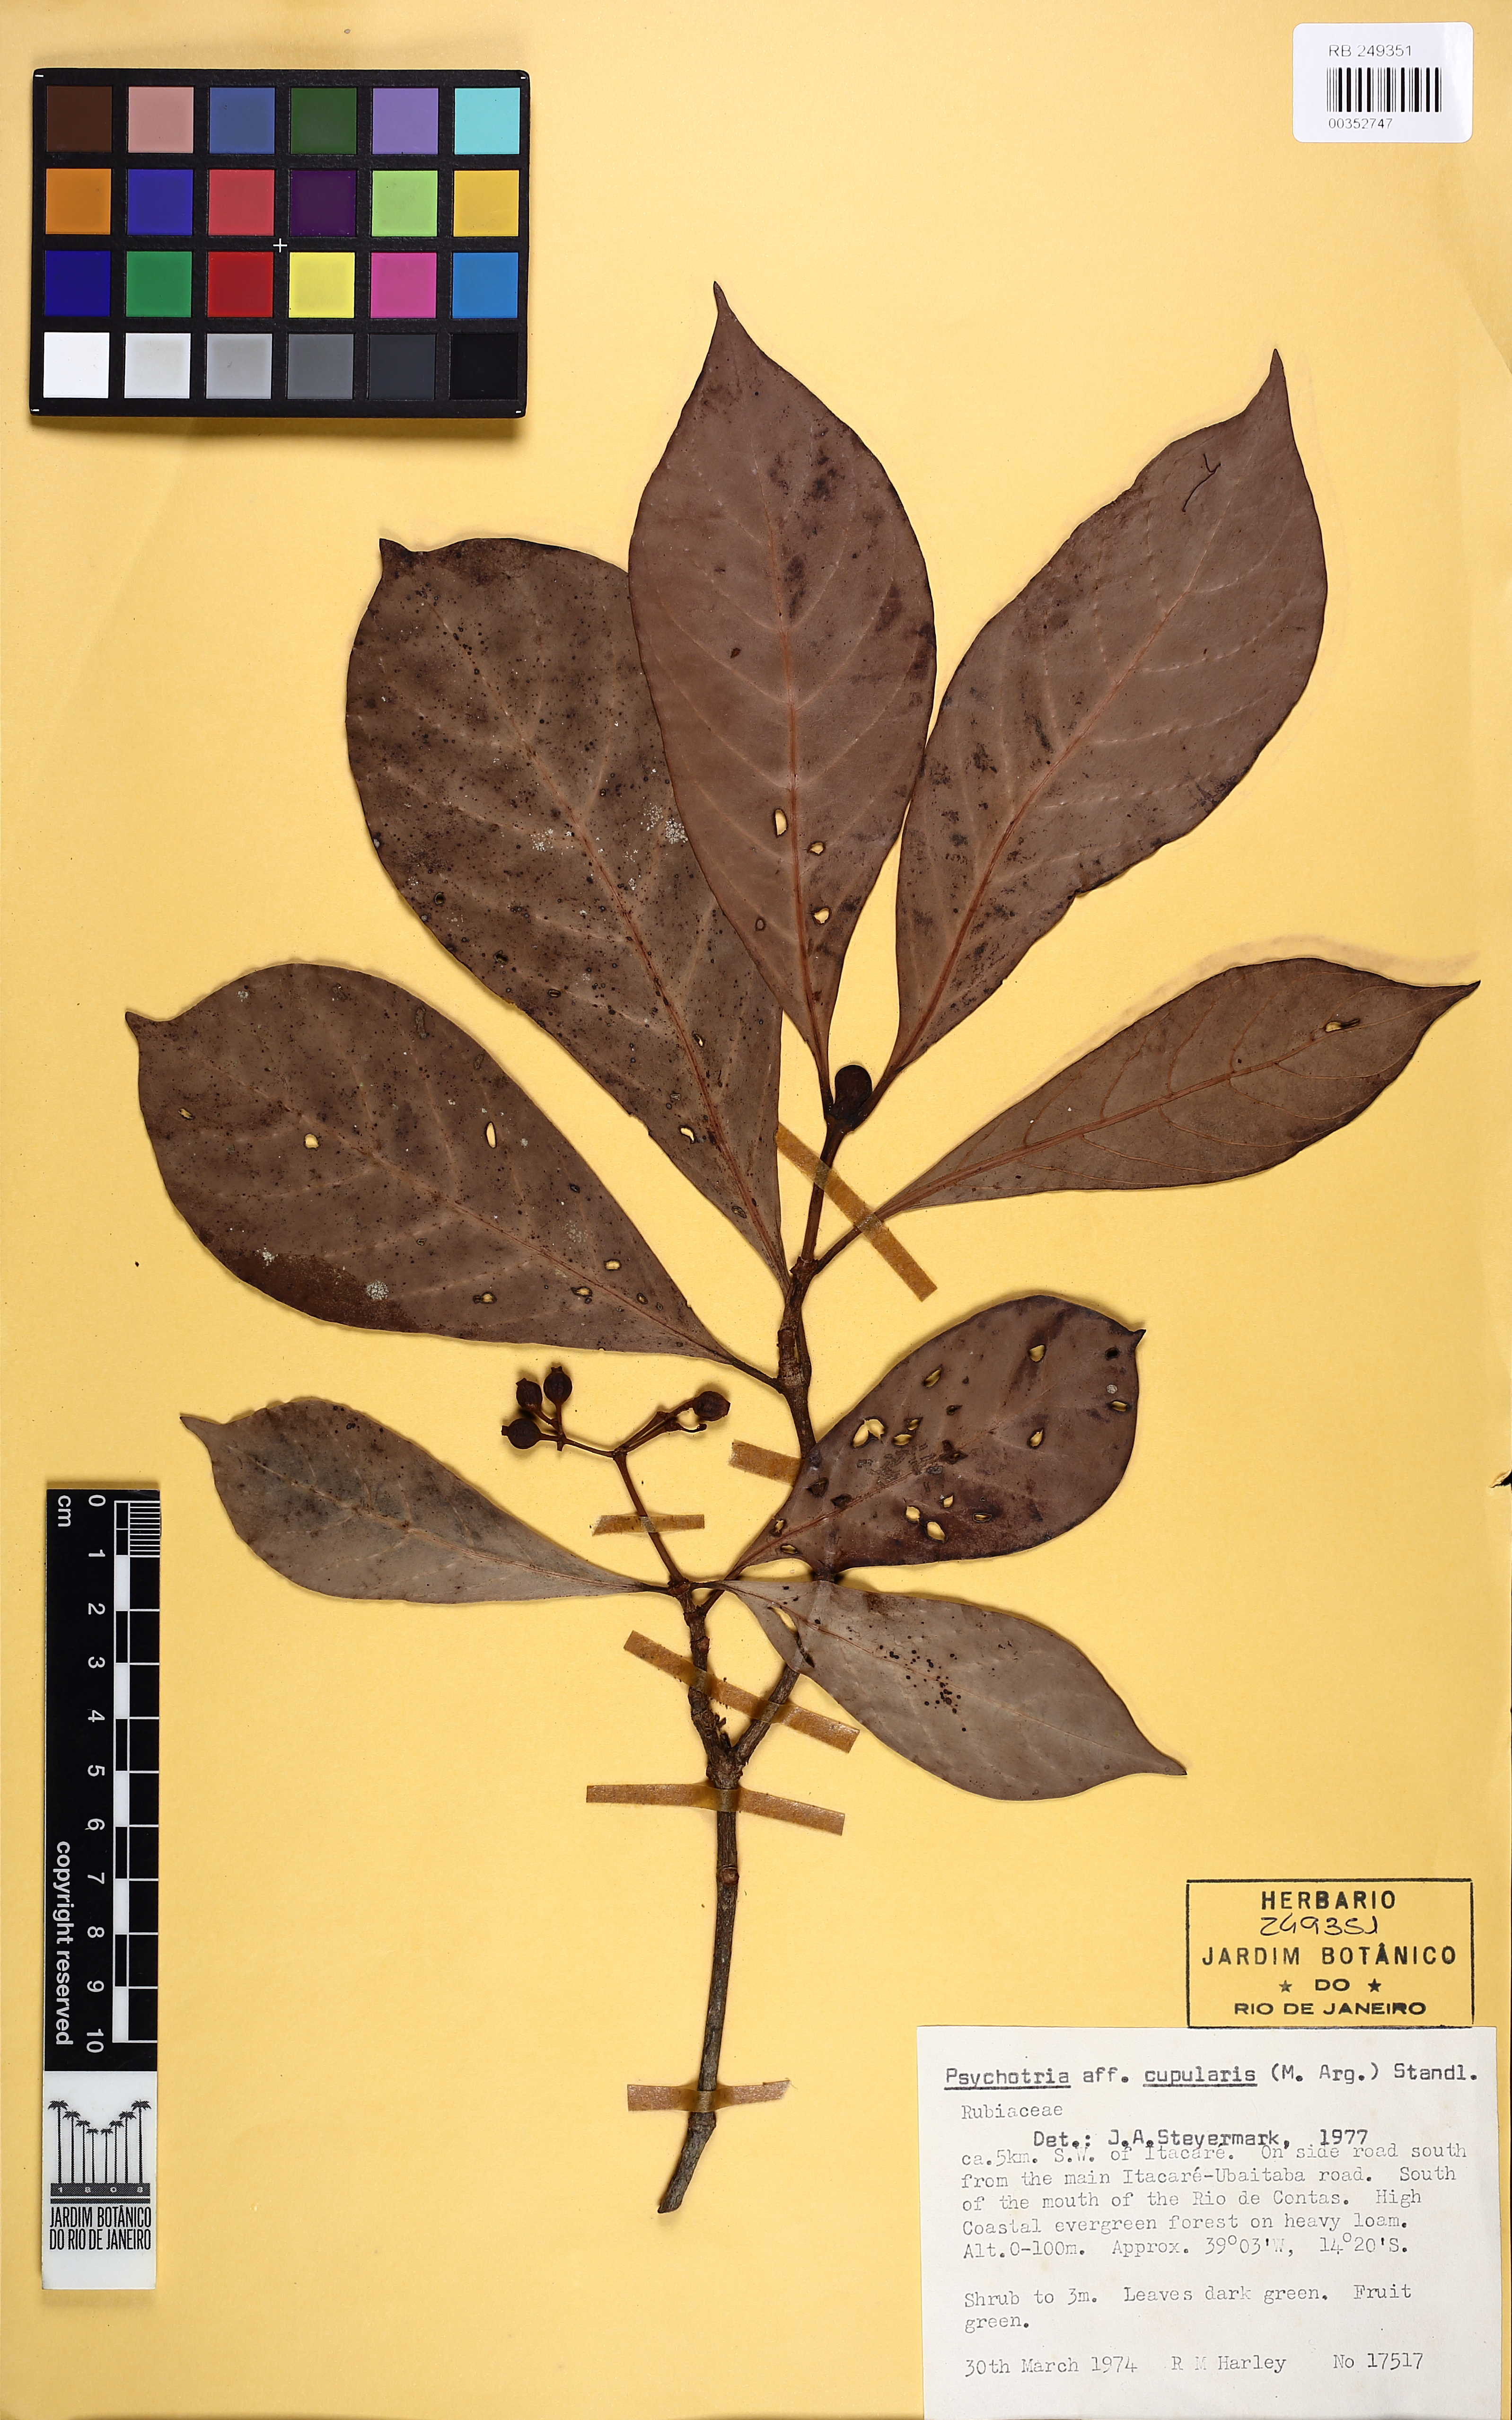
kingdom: Plantae
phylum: Tracheophyta
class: Magnoliopsida
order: Gentianales
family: Rubiaceae
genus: Psychotria
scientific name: Psychotria cupularis
